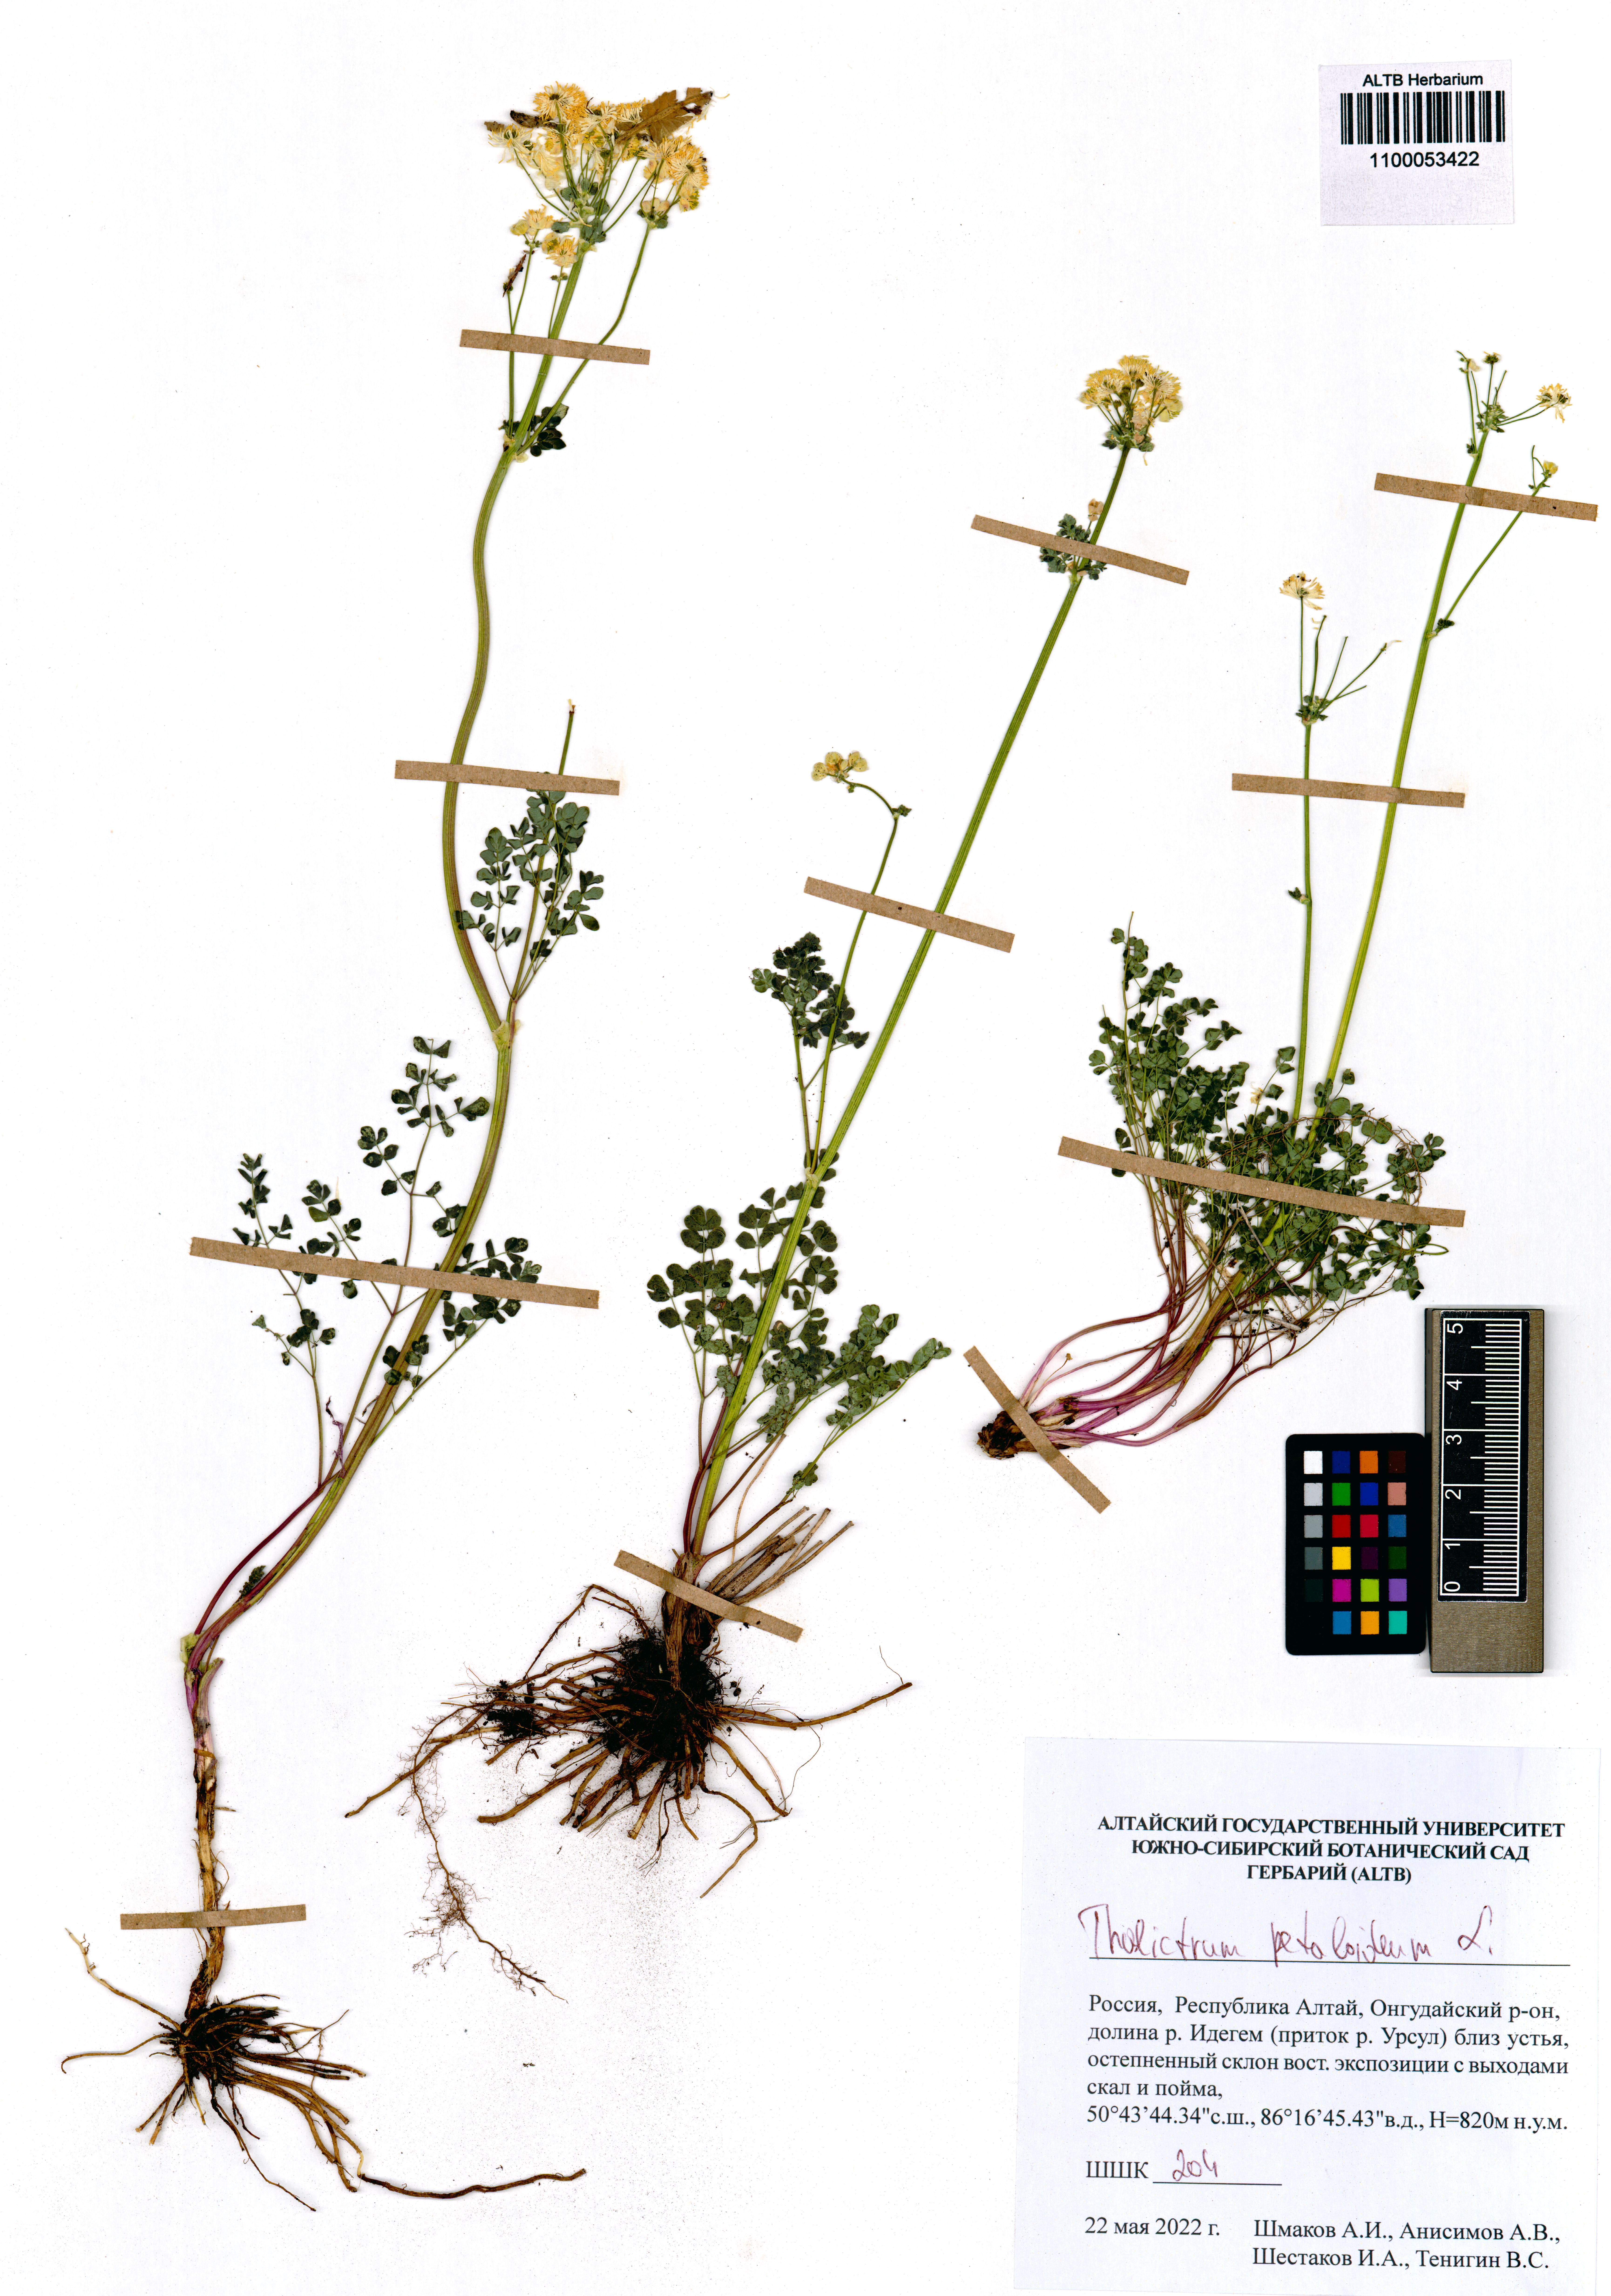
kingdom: Plantae
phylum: Tracheophyta
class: Magnoliopsida
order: Ranunculales
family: Ranunculaceae
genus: Thalictrum
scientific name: Thalictrum petaloideum
